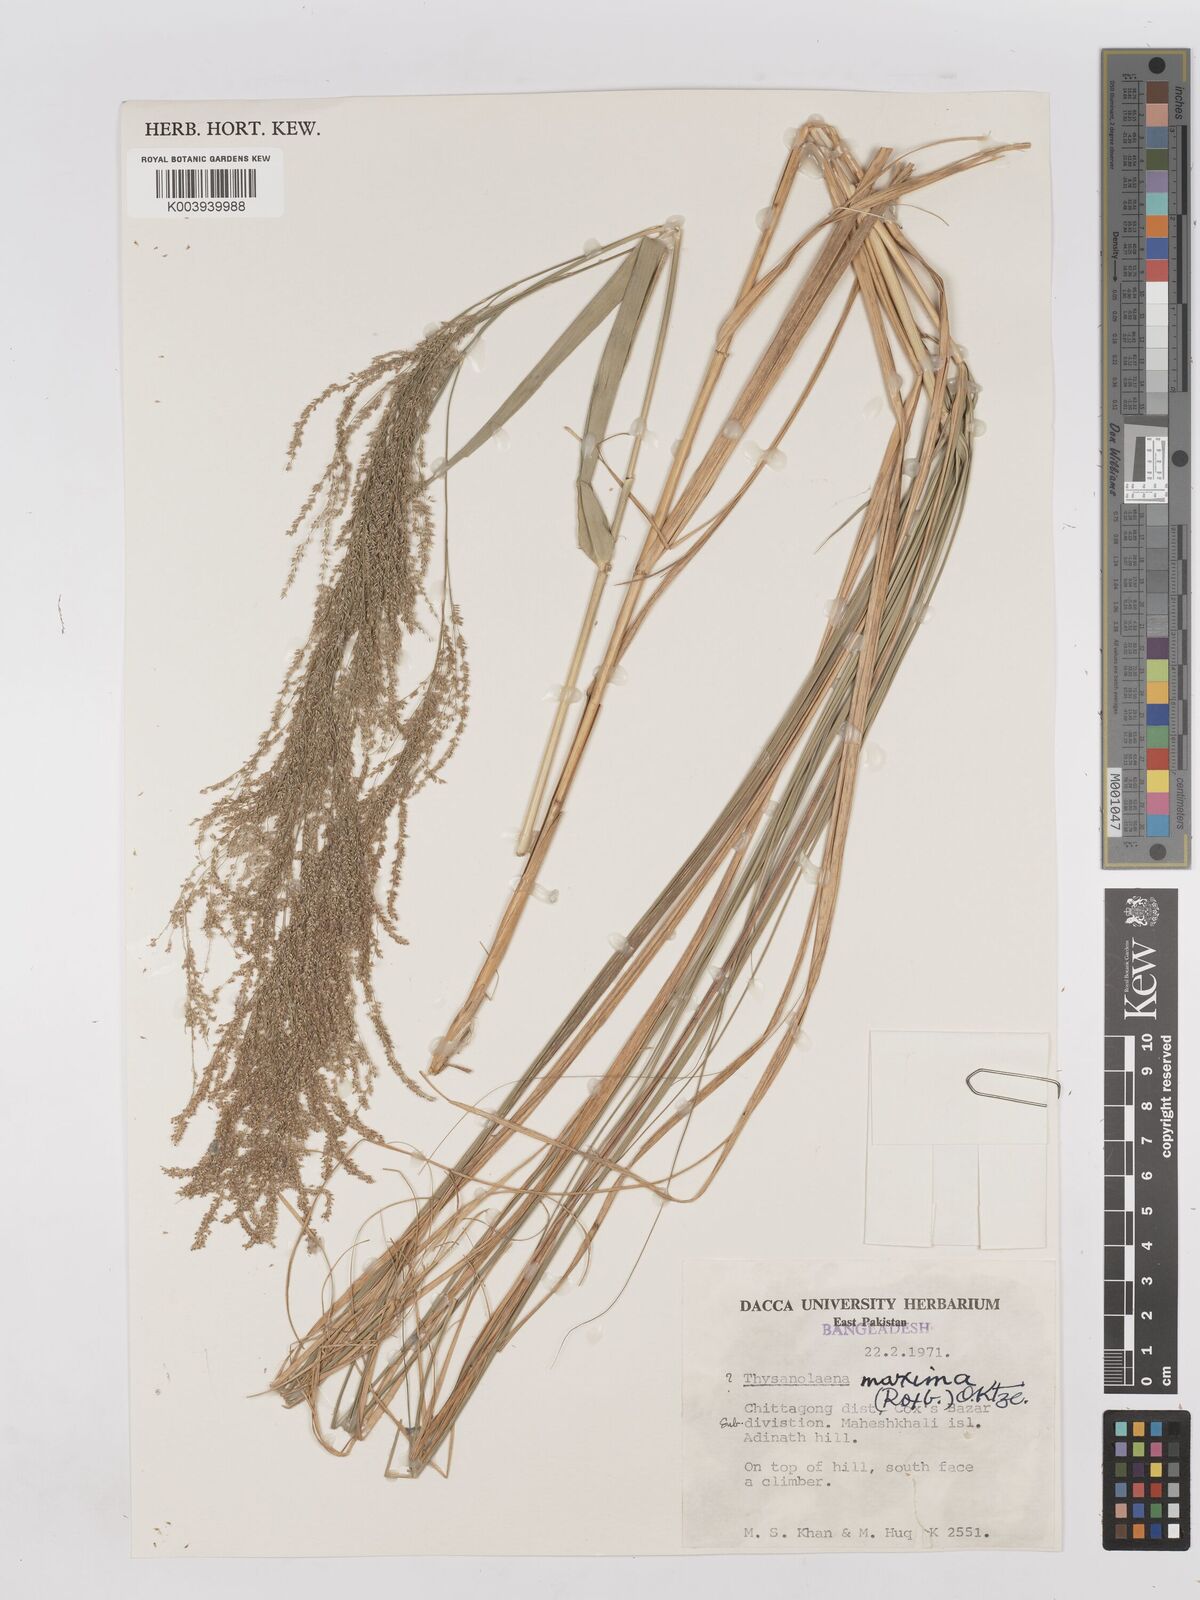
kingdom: Plantae
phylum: Tracheophyta
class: Liliopsida
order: Poales
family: Poaceae
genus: Thysanolaena
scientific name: Thysanolaena latifolia
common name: Tiger grass
